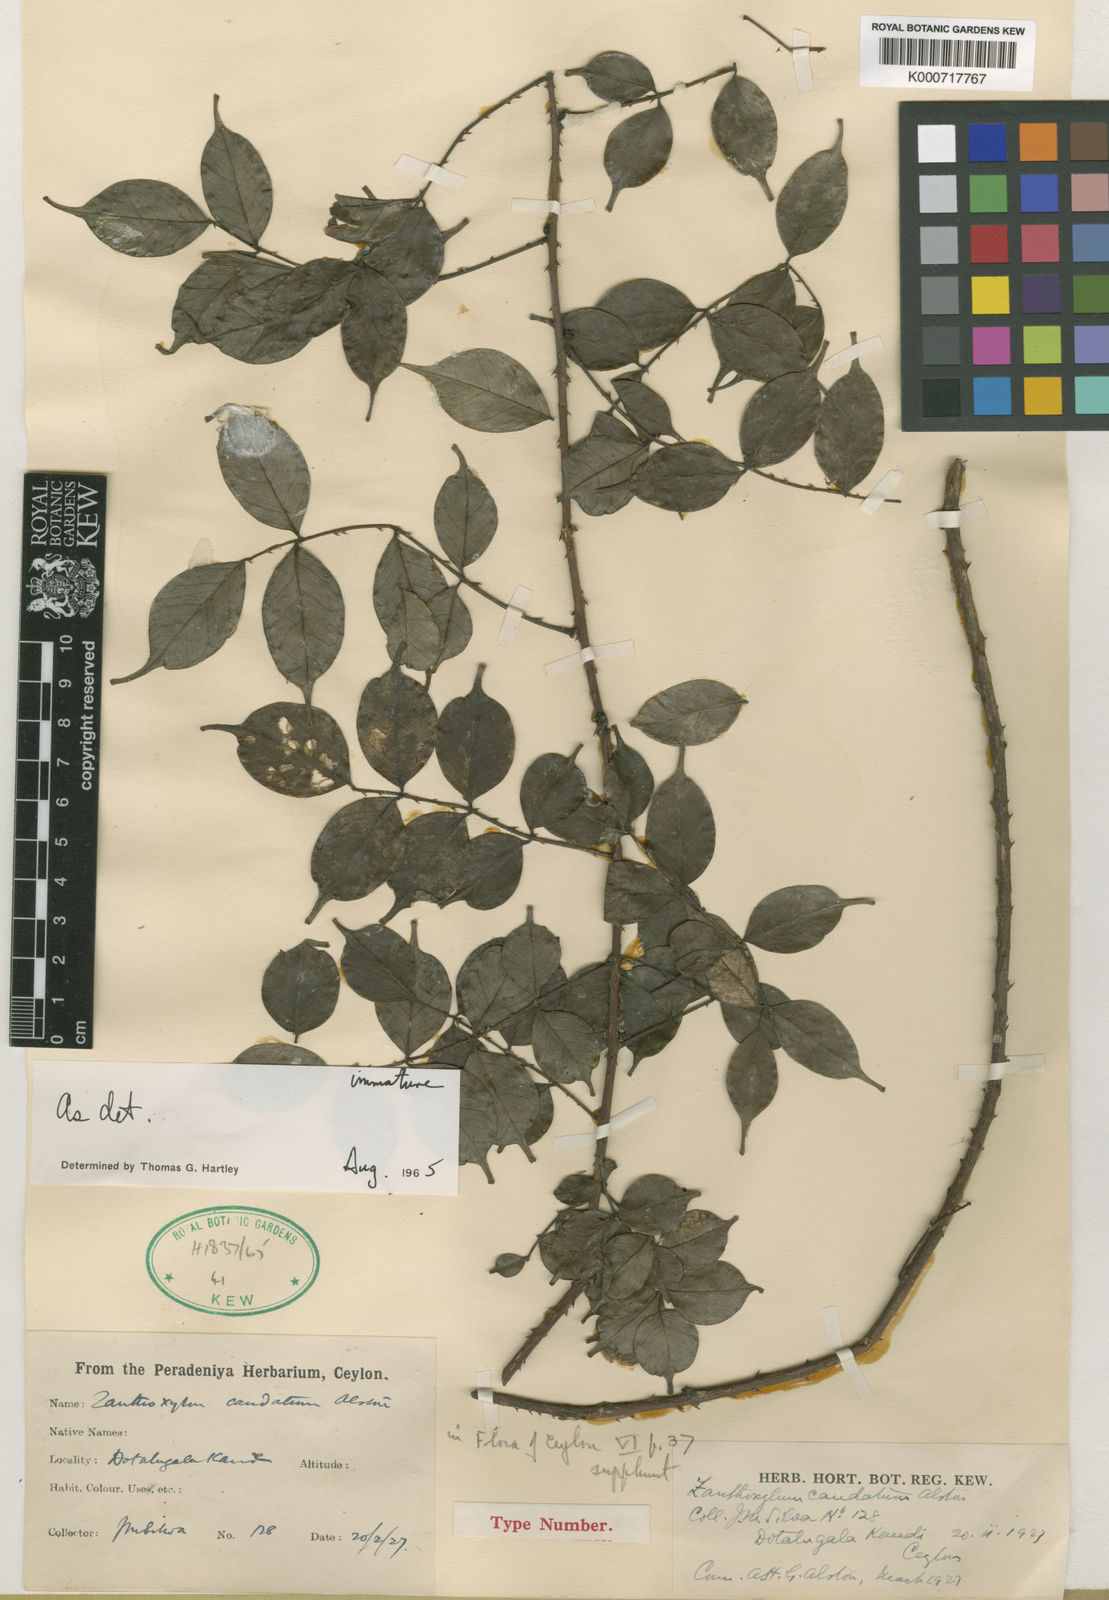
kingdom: Plantae
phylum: Tracheophyta
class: Magnoliopsida
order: Sapindales
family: Rutaceae
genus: Zanthoxylum
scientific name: Zanthoxylum caudatum
